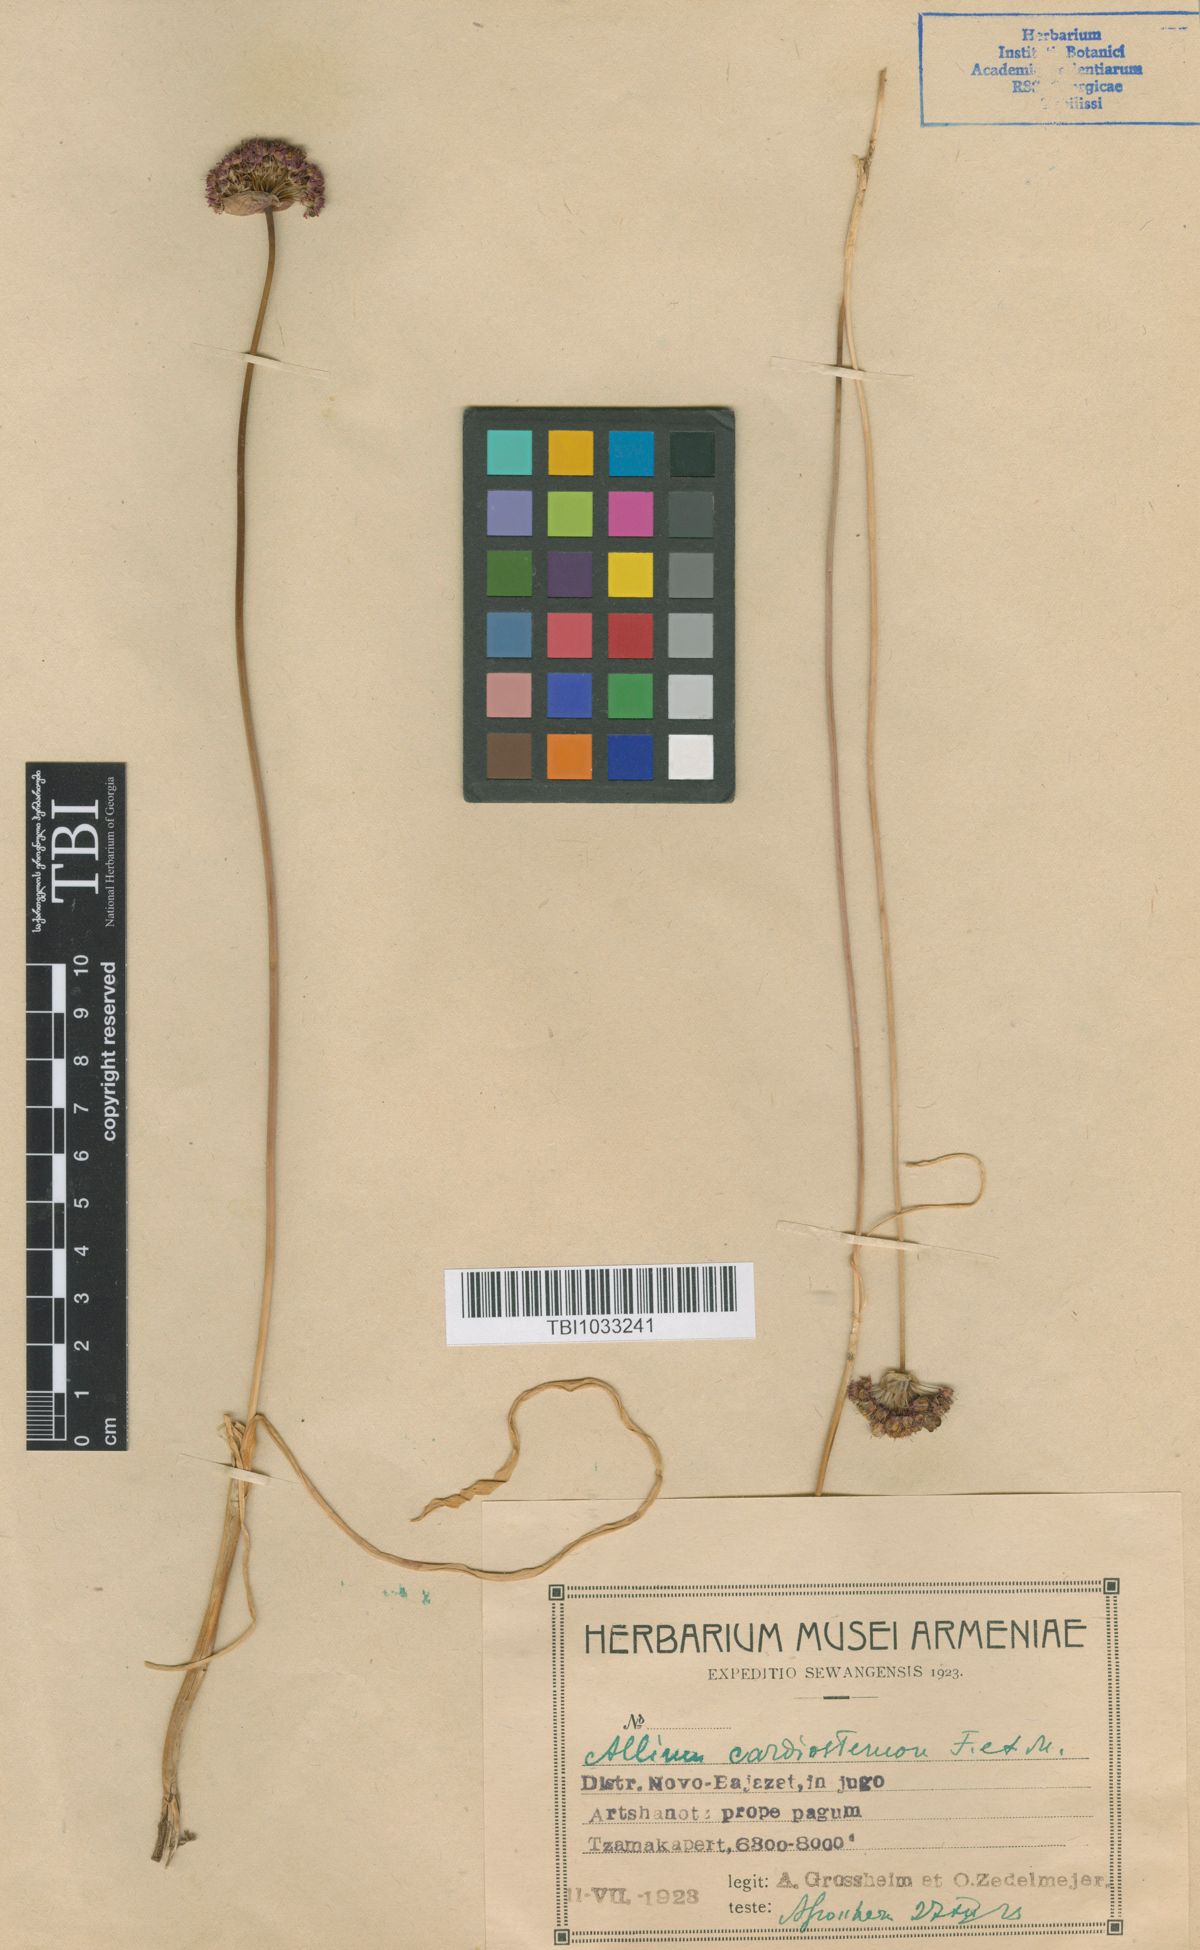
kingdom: Plantae
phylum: Tracheophyta
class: Liliopsida
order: Asparagales
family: Amaryllidaceae
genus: Allium
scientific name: Allium cardiostemon
